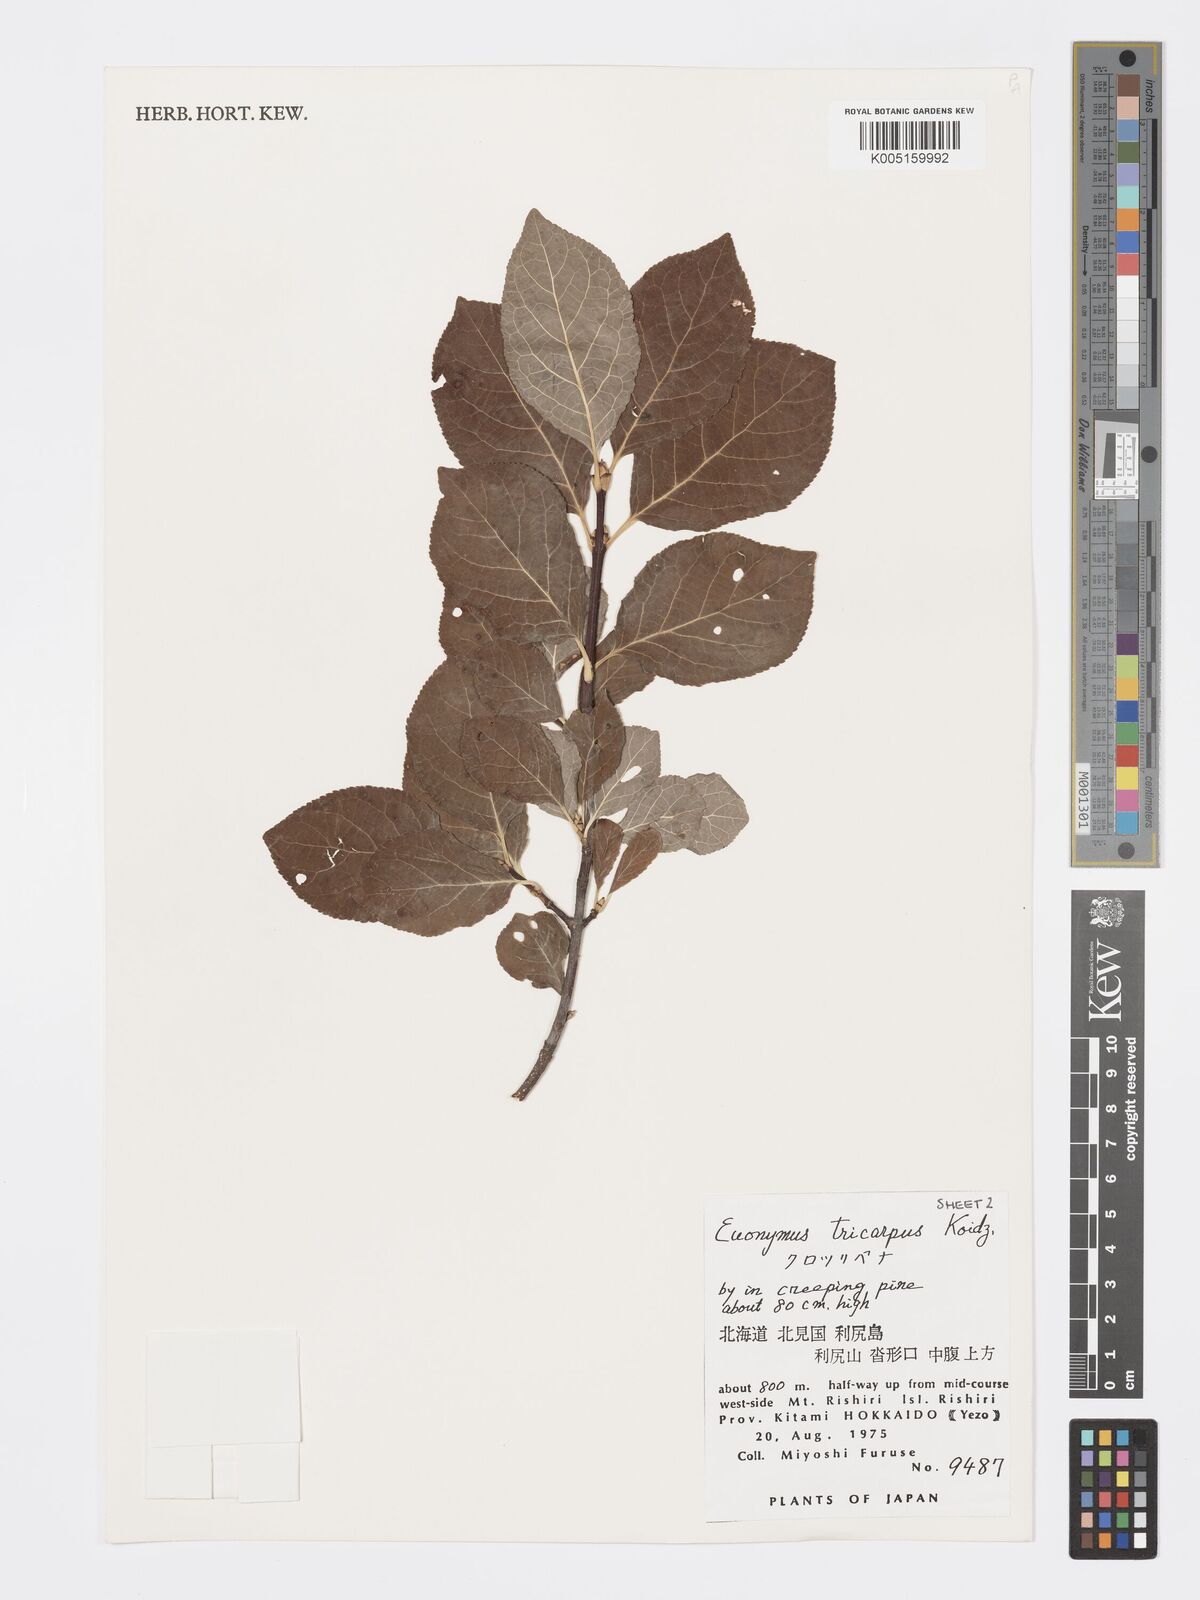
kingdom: Plantae
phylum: Tracheophyta
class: Magnoliopsida
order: Celastrales
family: Celastraceae
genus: Euonymus
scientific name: Euonymus sachalinensis
